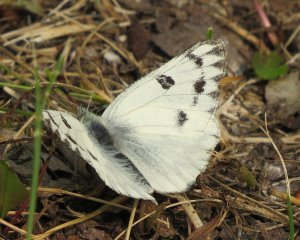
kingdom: Animalia
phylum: Arthropoda
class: Insecta
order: Lepidoptera
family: Pieridae
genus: Pontia
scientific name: Pontia protodice
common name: Checkered White
